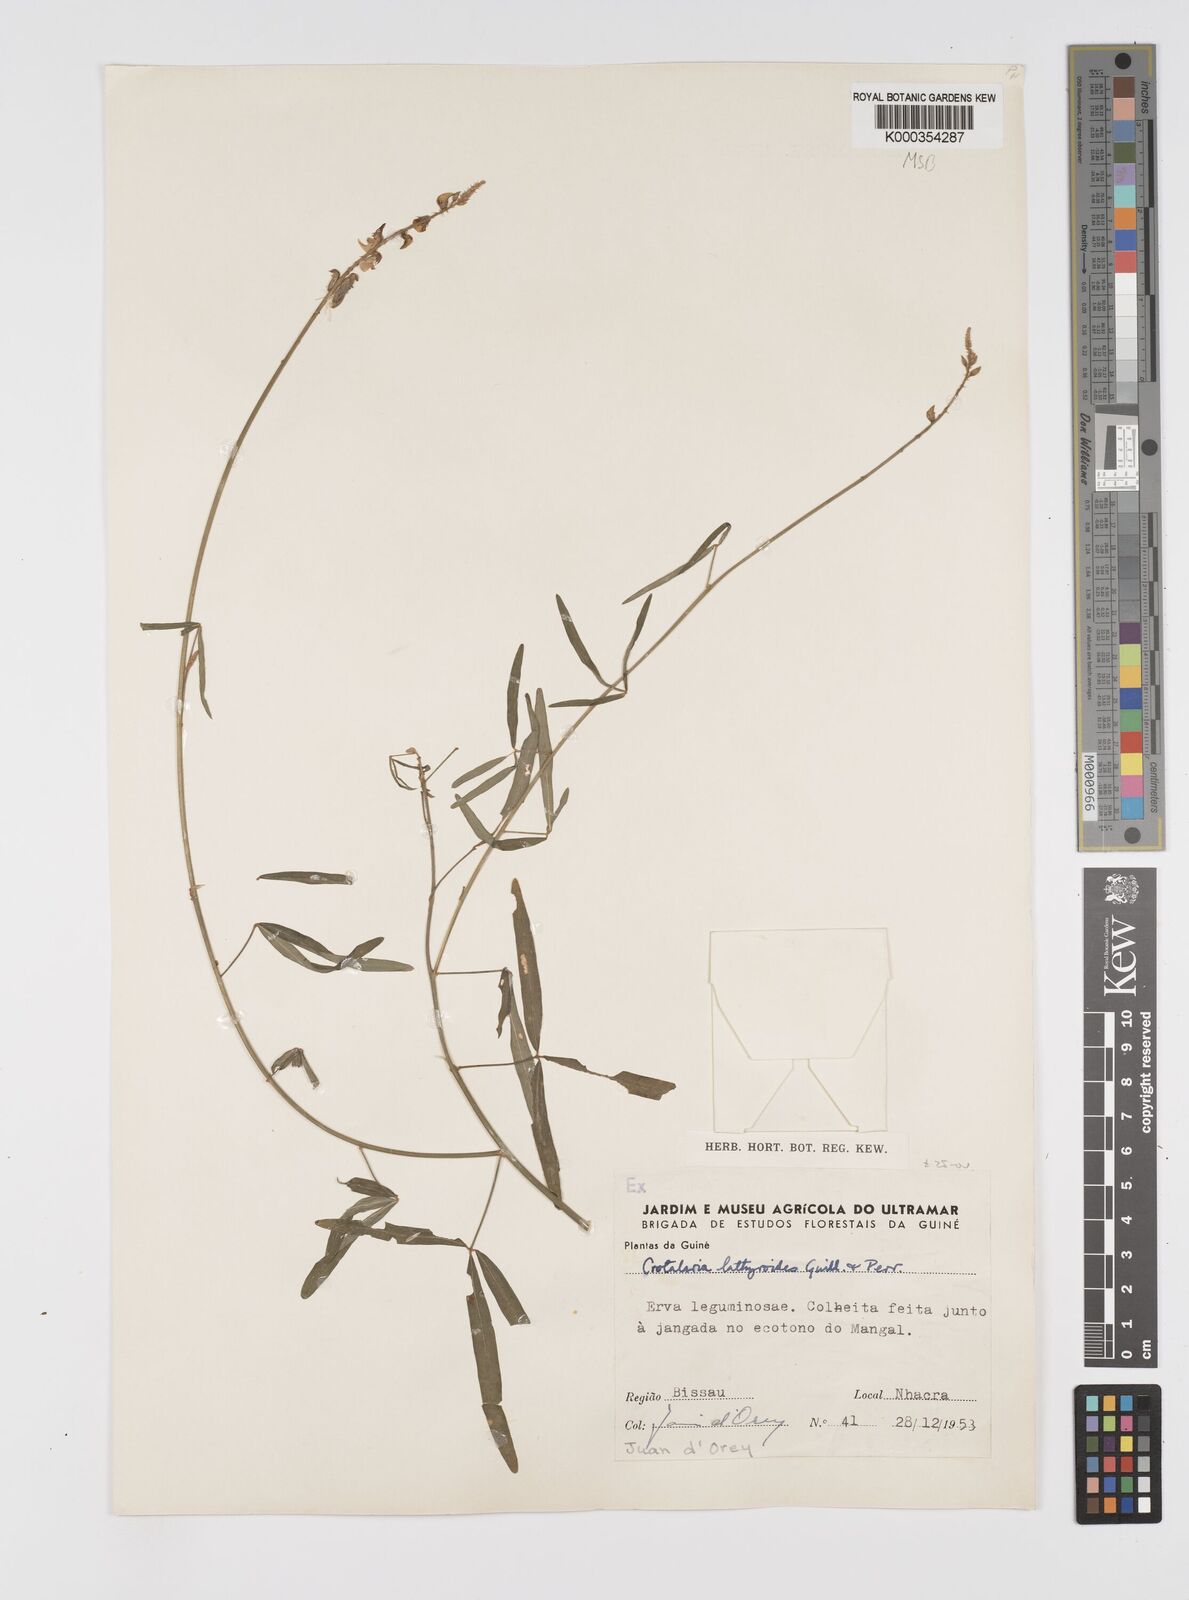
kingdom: Plantae
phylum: Tracheophyta
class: Magnoliopsida
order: Fabales
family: Fabaceae
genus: Crotalaria
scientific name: Crotalaria lathyroides
